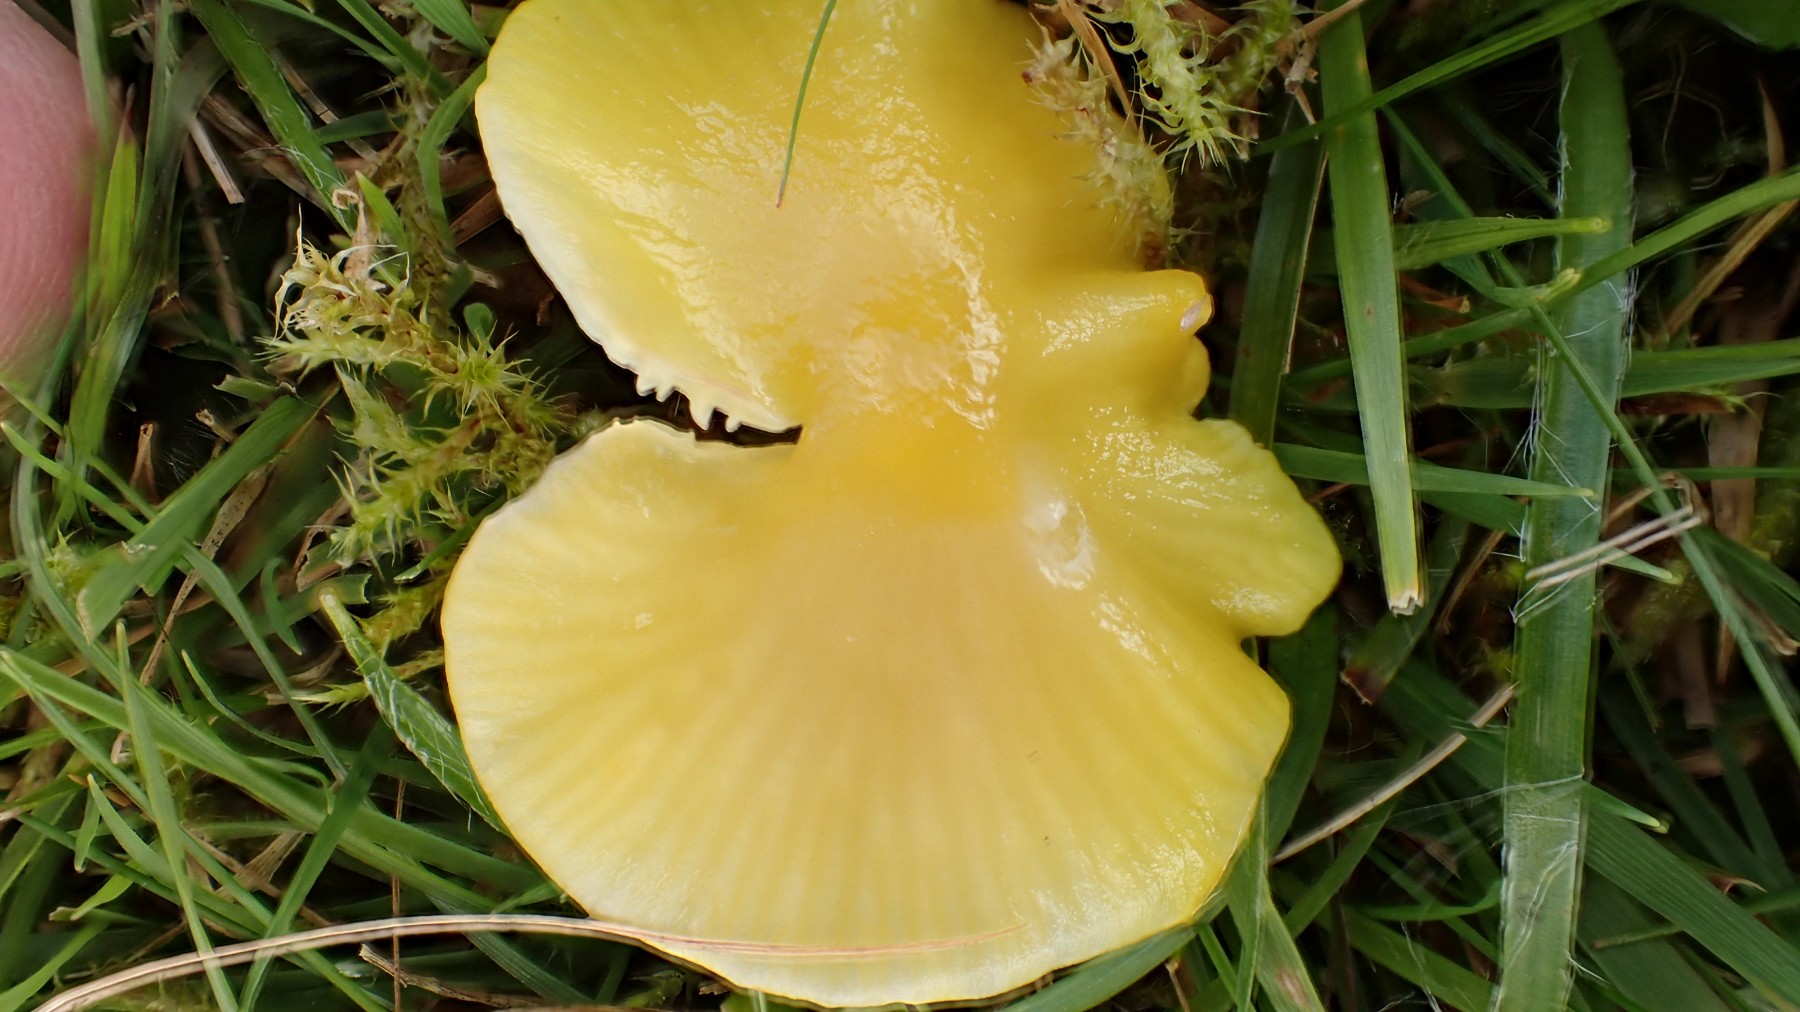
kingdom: Fungi
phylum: Basidiomycota
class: Agaricomycetes
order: Agaricales
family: Hygrophoraceae
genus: Hygrocybe
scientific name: Hygrocybe chlorophana
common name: gul vokshat
